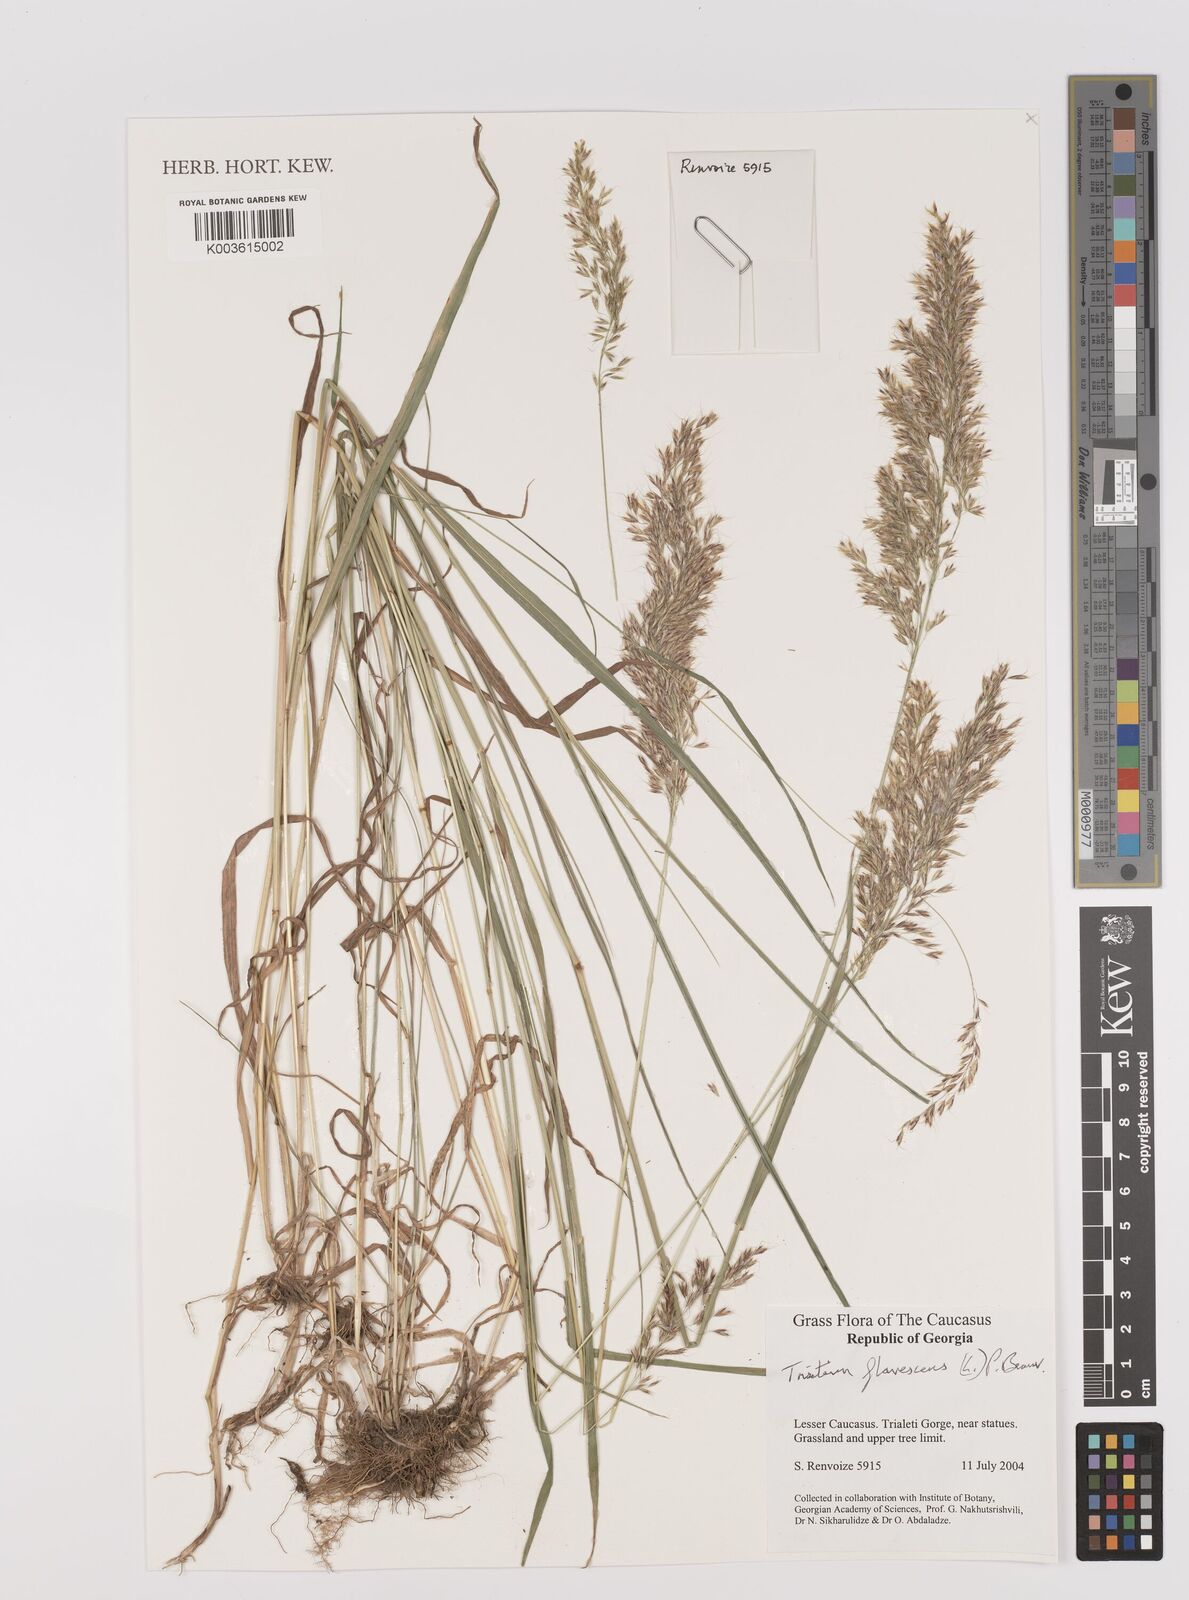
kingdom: Plantae
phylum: Tracheophyta
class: Liliopsida
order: Poales
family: Poaceae
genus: Trisetum
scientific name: Trisetum flavescens
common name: Yellow oat-grass
